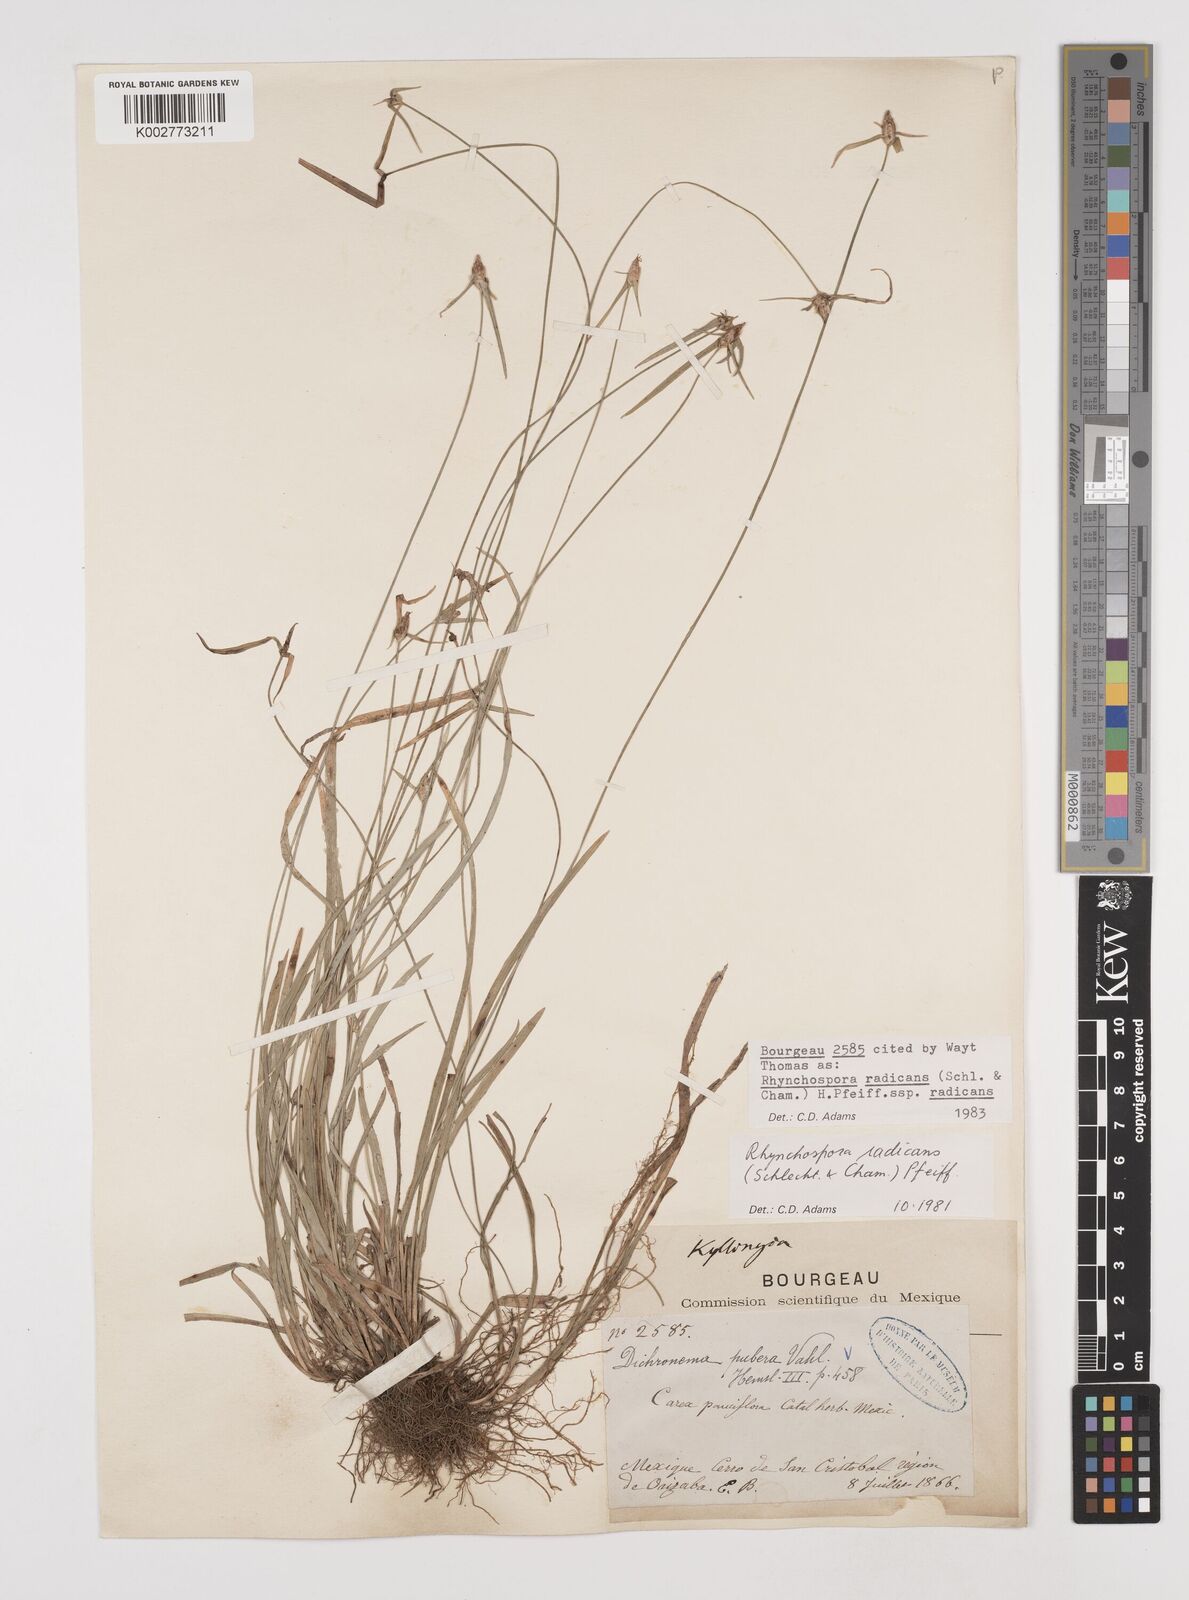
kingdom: Plantae
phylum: Tracheophyta
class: Liliopsida
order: Poales
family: Cyperaceae
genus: Rhynchospora
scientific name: Rhynchospora radicans
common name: Tropical whitetop
